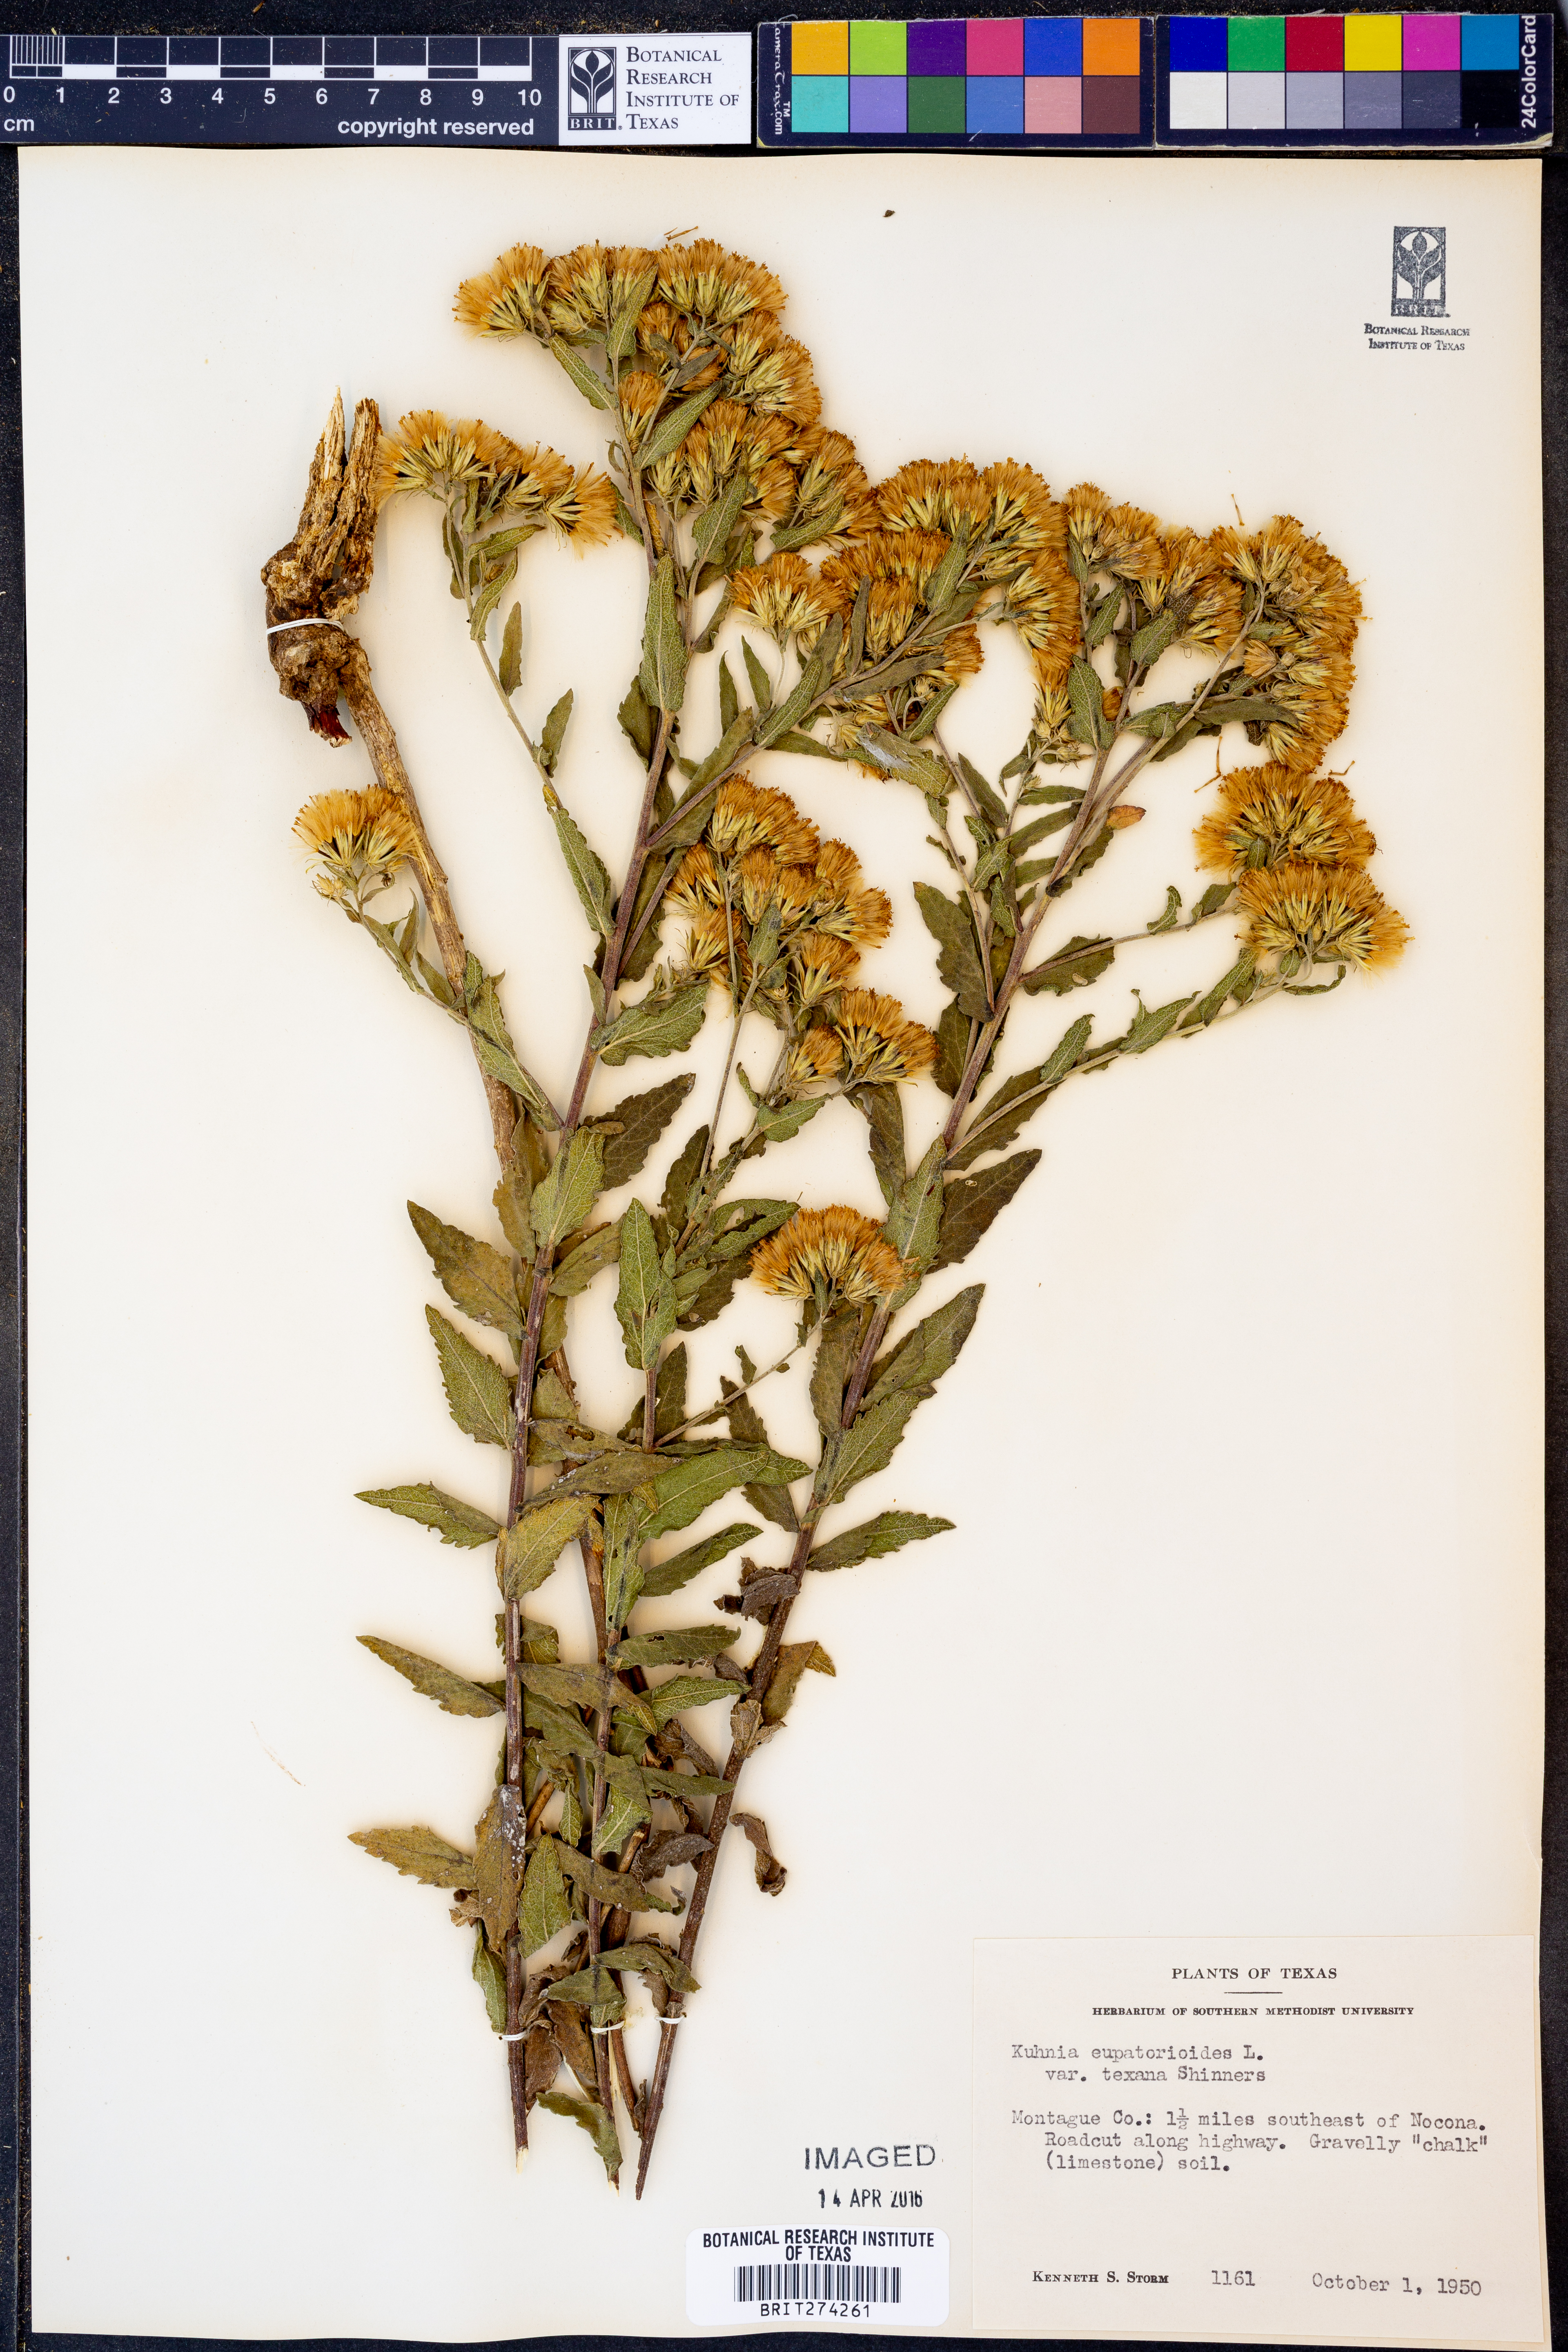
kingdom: Plantae
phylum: Tracheophyta
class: Magnoliopsida
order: Asterales
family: Asteraceae
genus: Brickellia
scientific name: Brickellia
